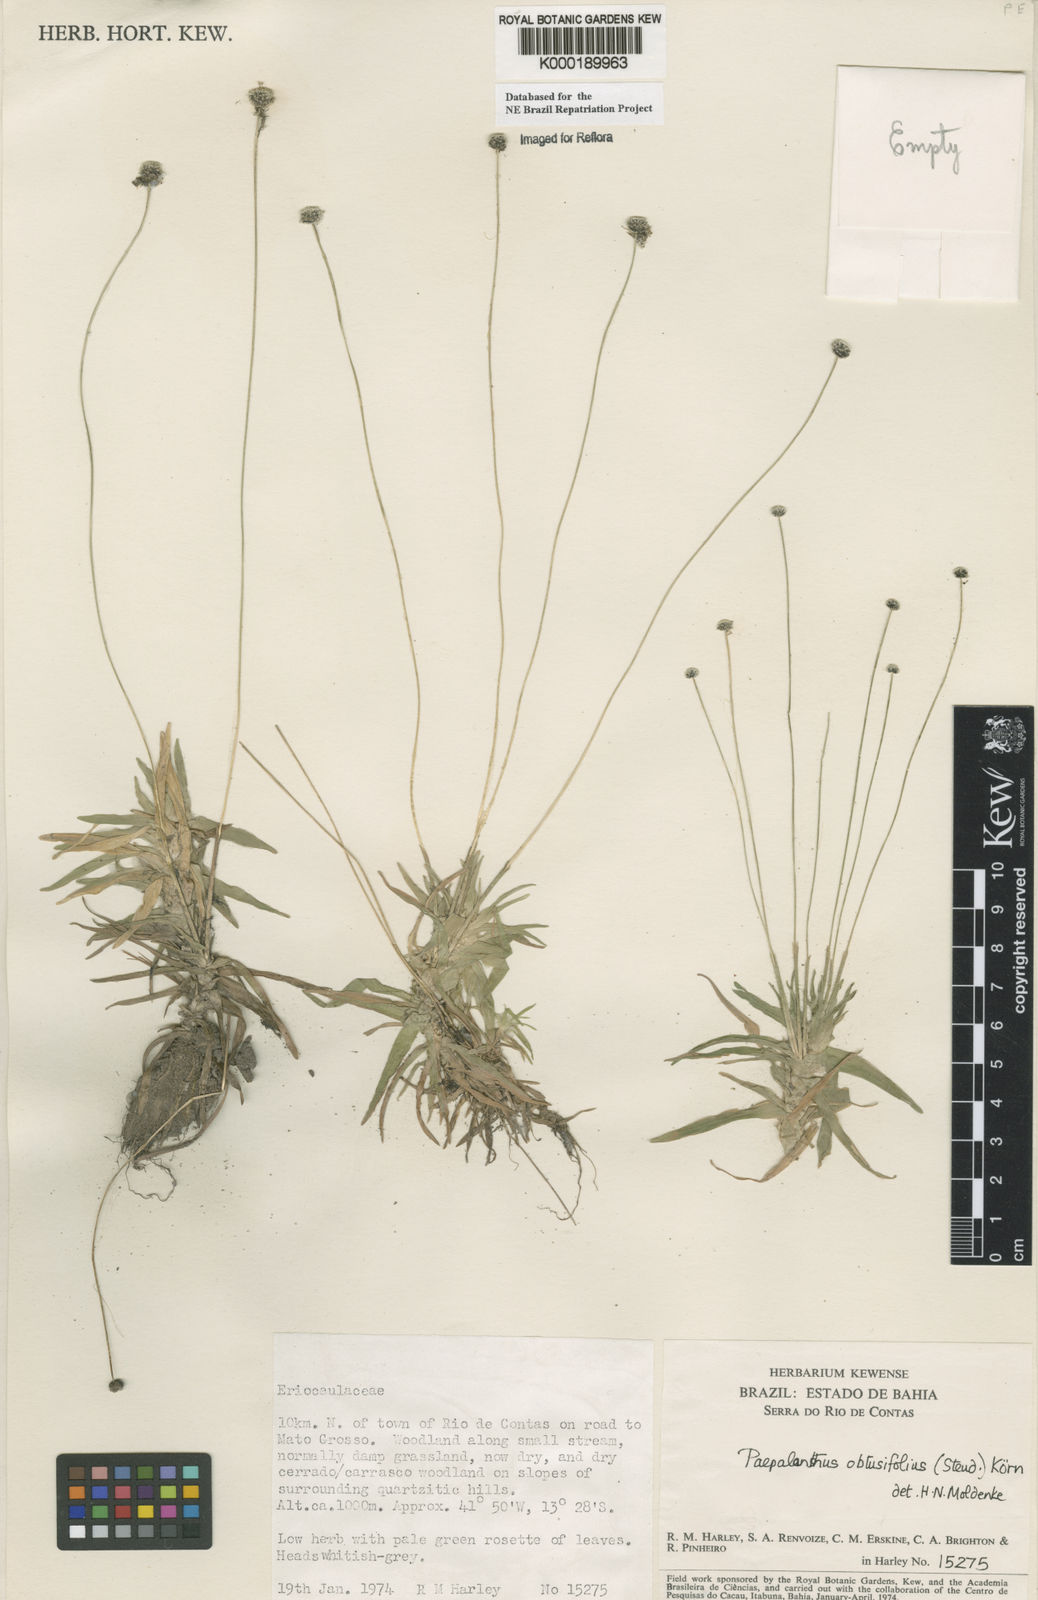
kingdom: Plantae
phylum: Tracheophyta
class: Liliopsida
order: Poales
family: Eriocaulaceae
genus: Paepalanthus
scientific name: Paepalanthus
